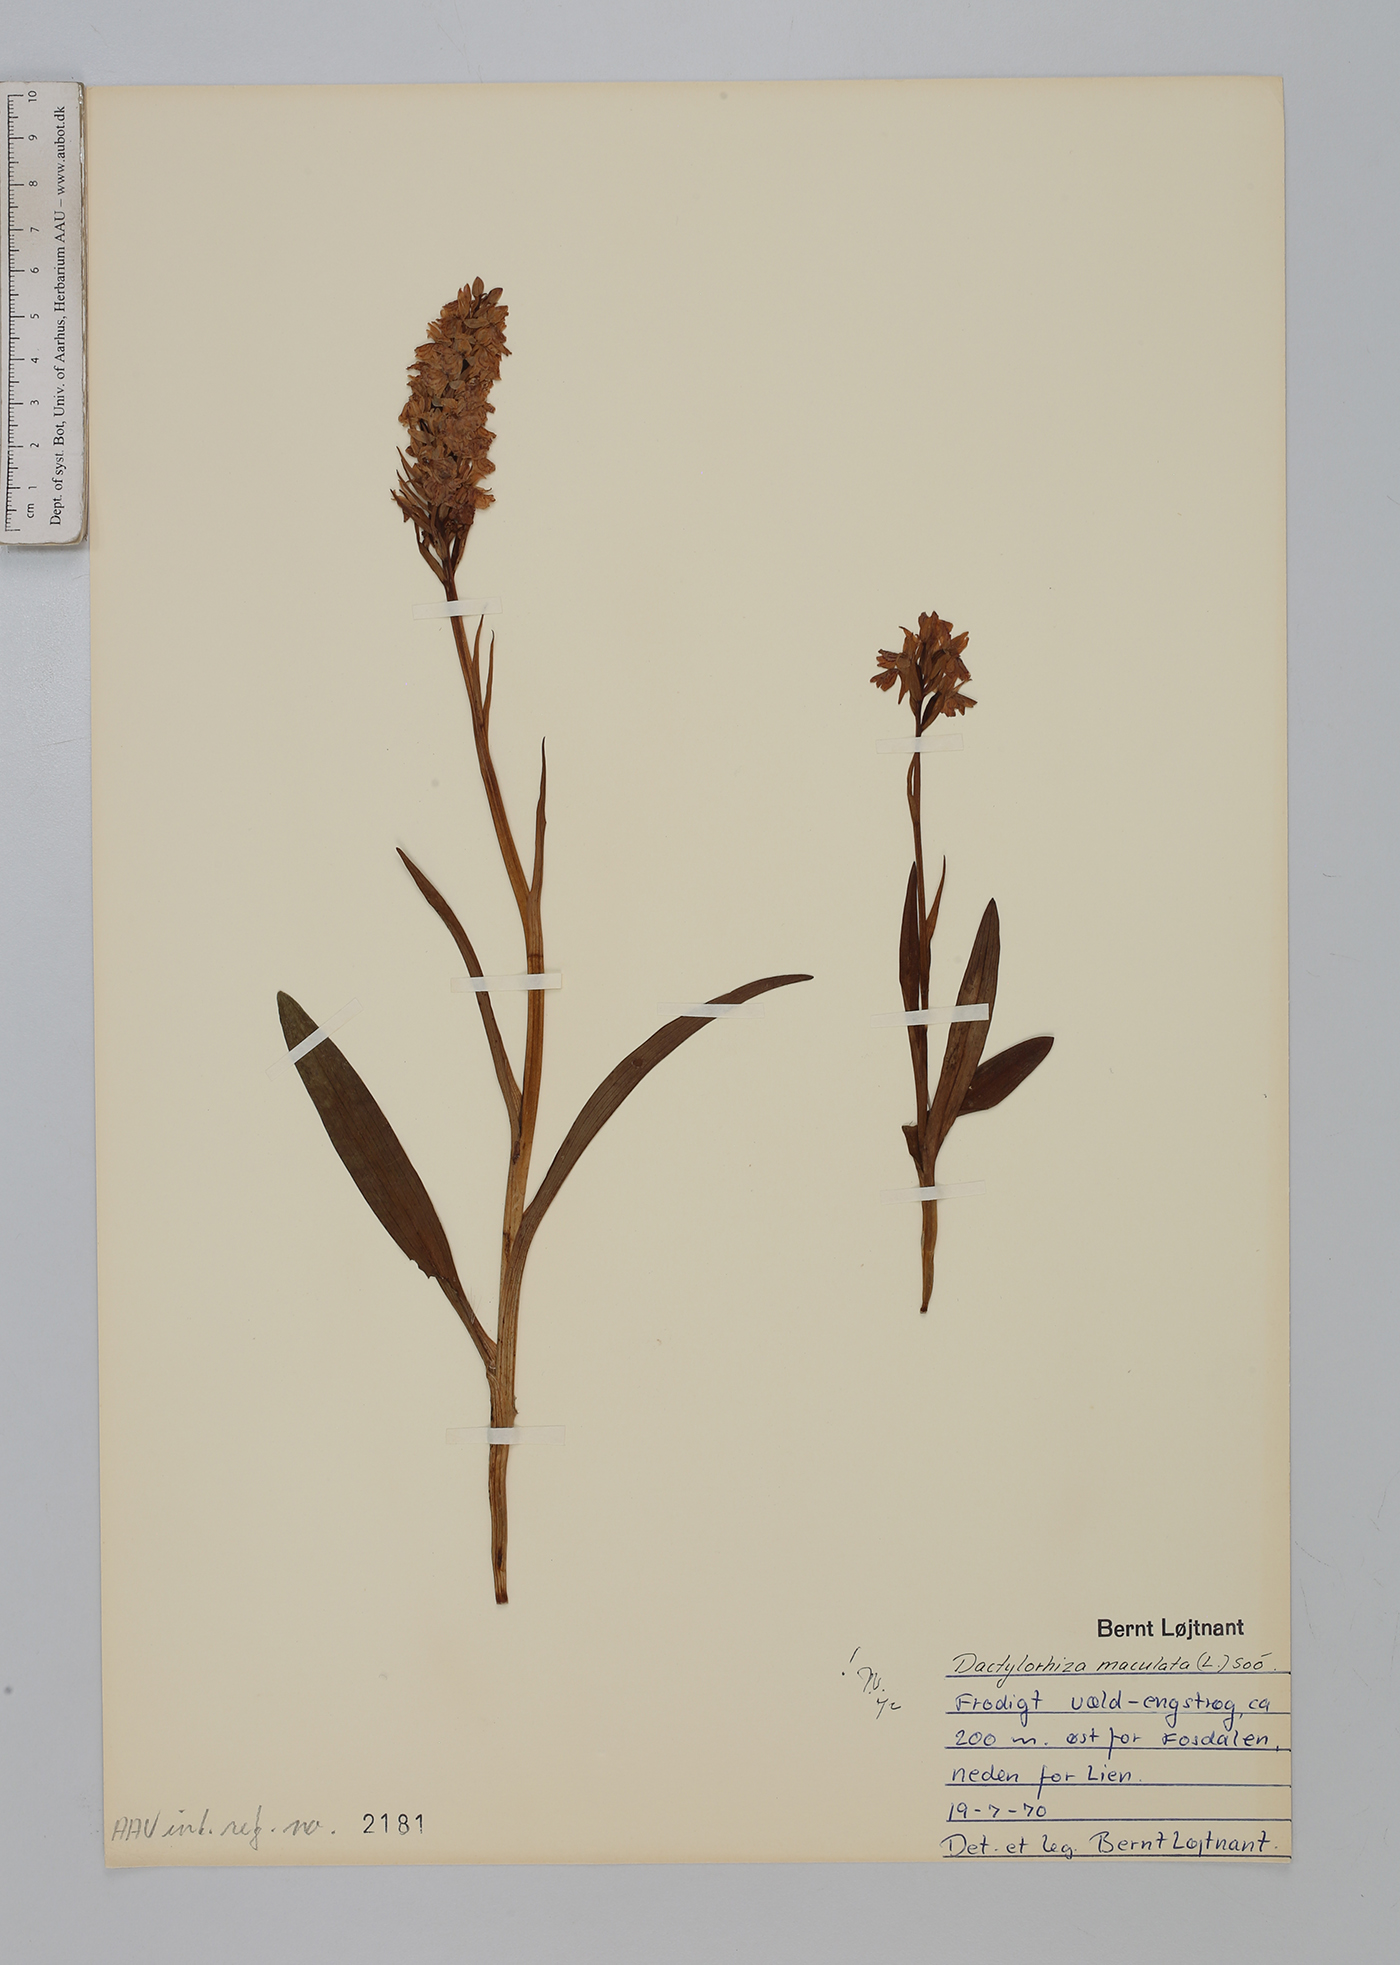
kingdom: Plantae
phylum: Tracheophyta
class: Liliopsida
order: Asparagales
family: Orchidaceae
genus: Dactylorhiza
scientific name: Dactylorhiza maculata
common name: Heath spotted-orchid
